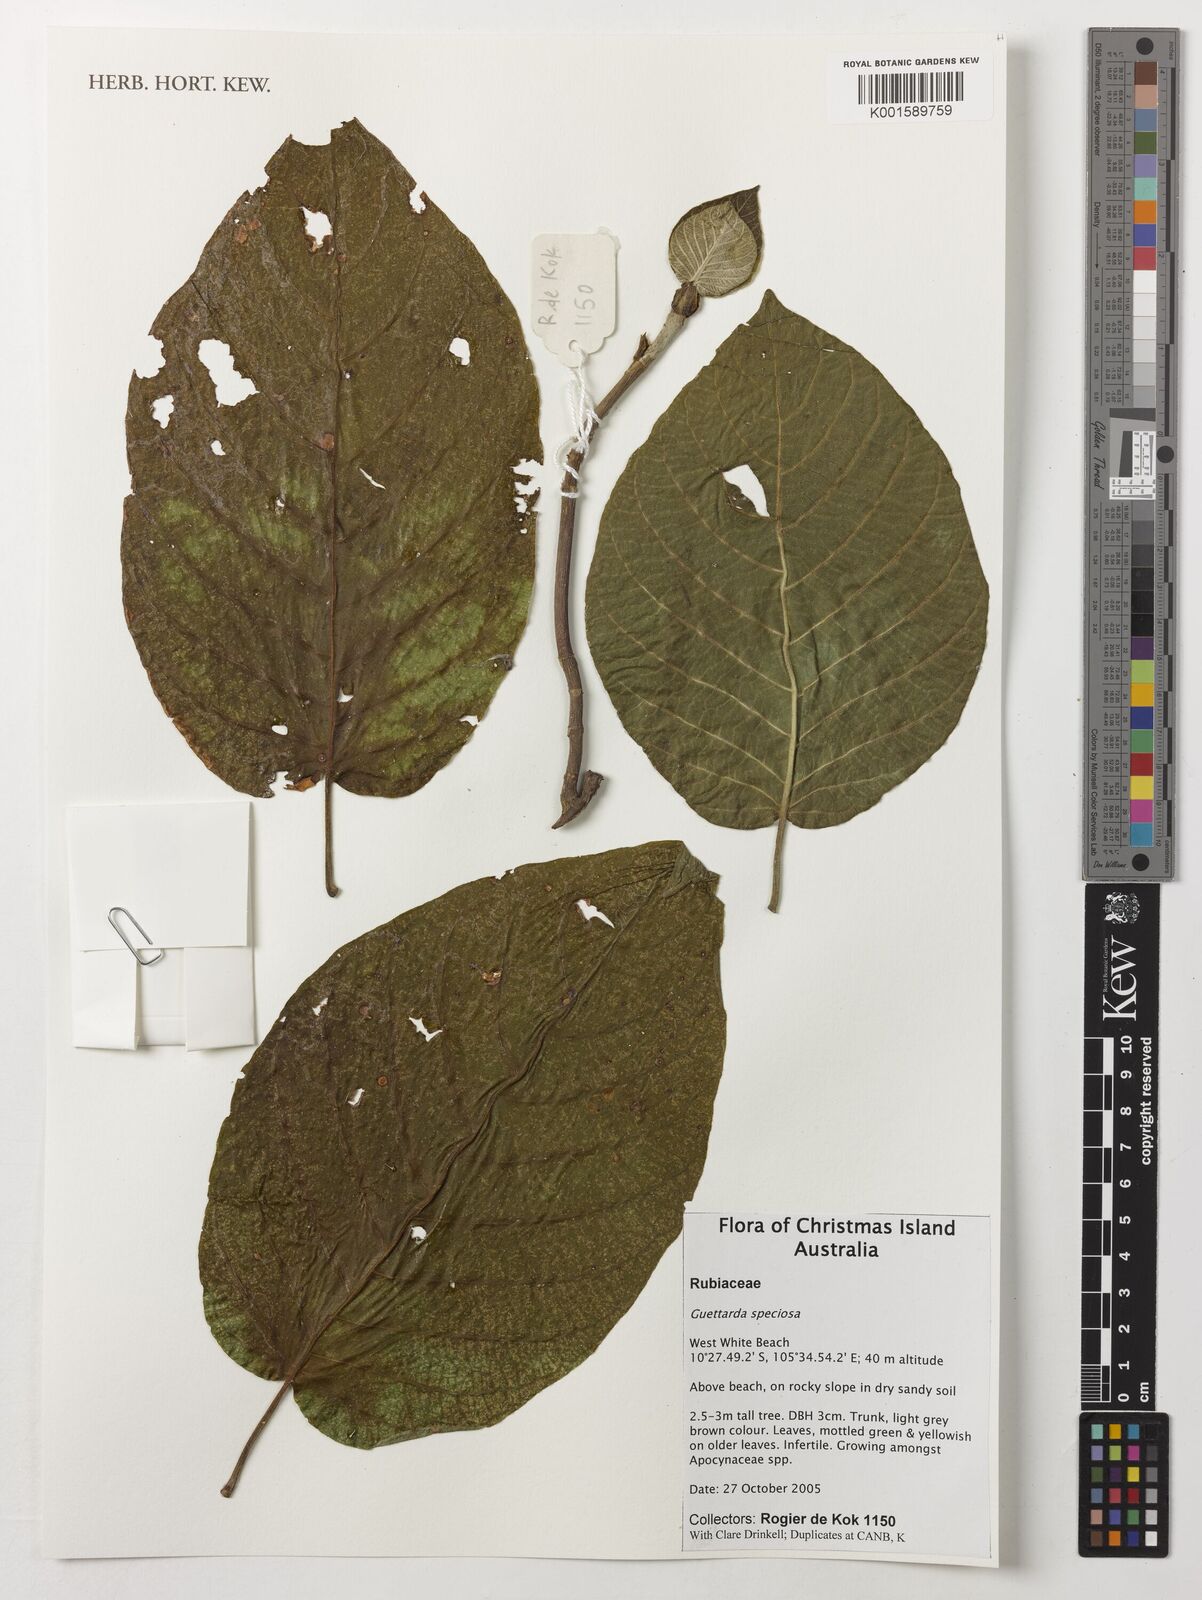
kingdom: Plantae
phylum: Tracheophyta
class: Magnoliopsida
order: Gentianales
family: Rubiaceae
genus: Guettarda
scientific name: Guettarda speciosa
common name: Sea randa
